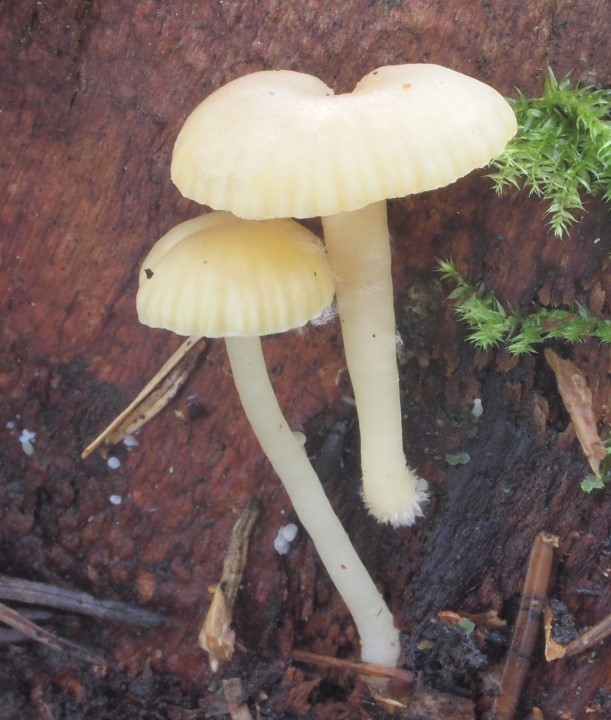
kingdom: Fungi
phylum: Basidiomycota
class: Agaricomycetes
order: Agaricales
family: Hygrophoraceae
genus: Chrysomphalina
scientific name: Chrysomphalina grossula
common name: stød-gyldenblad
